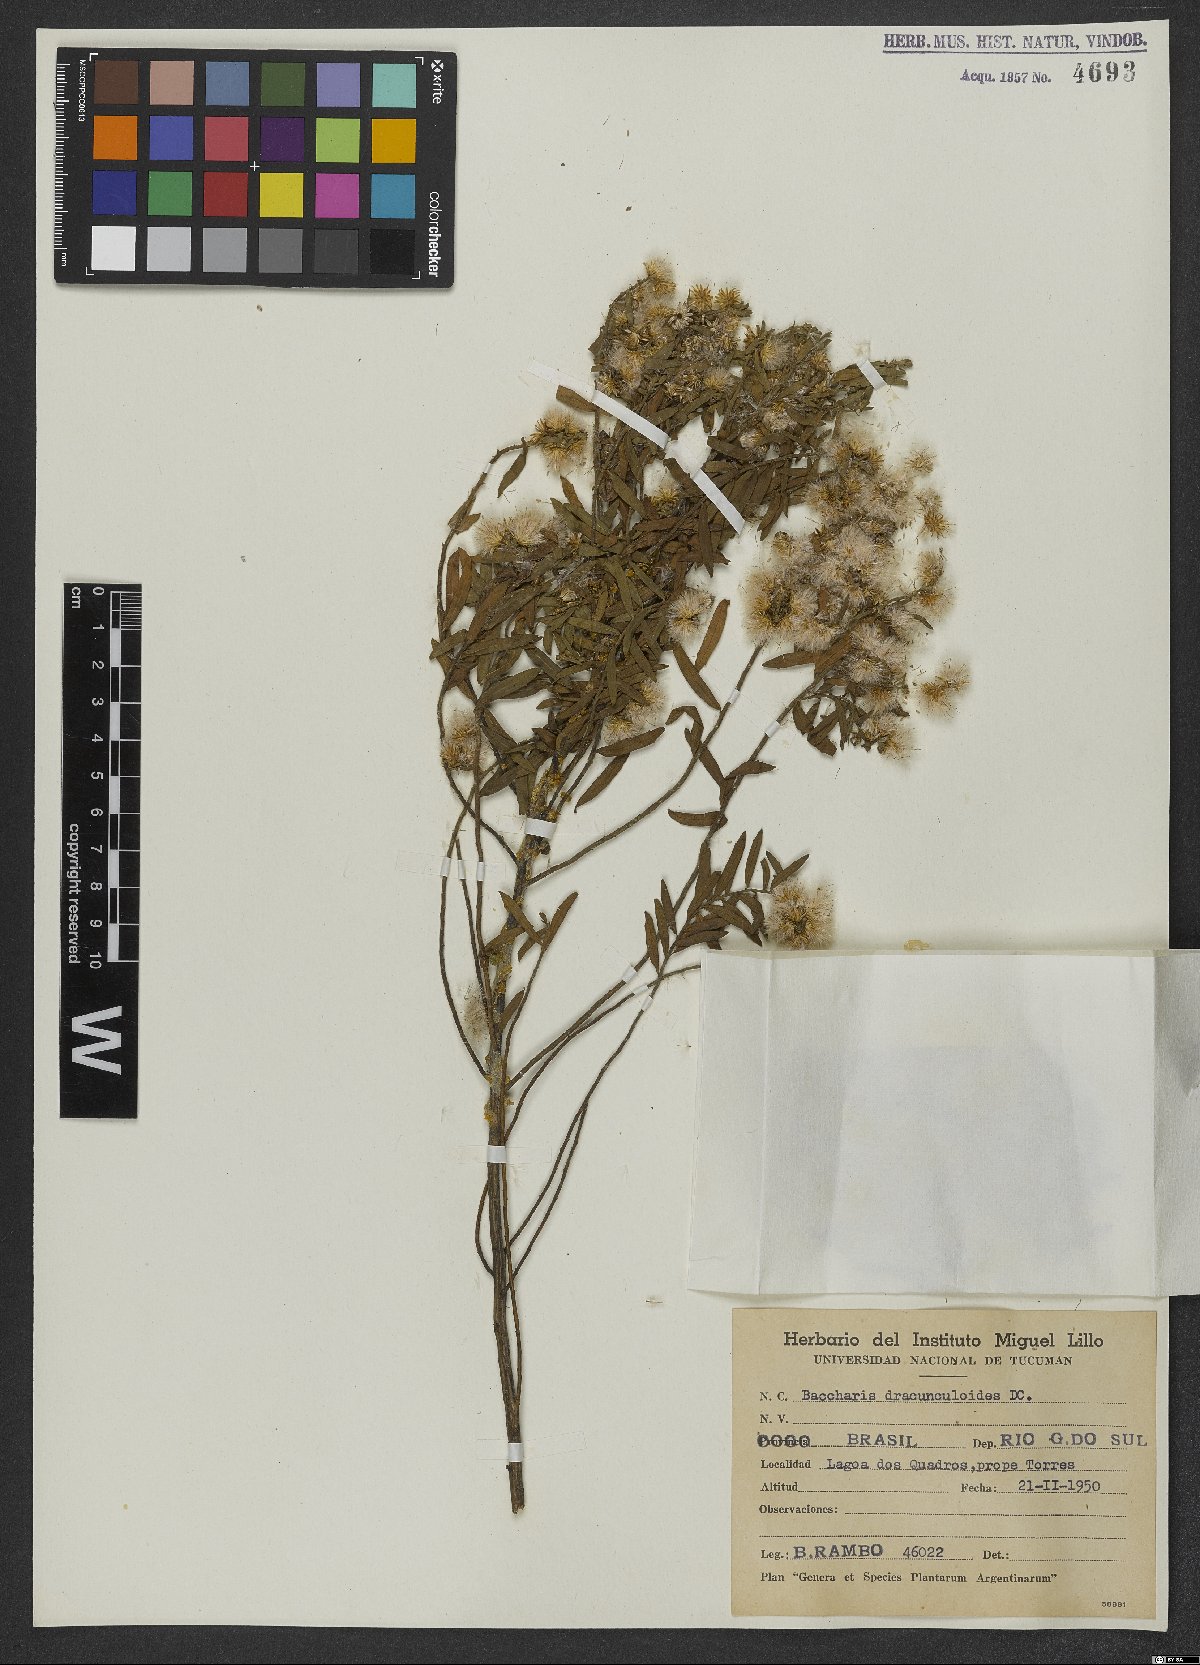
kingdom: Plantae
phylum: Tracheophyta
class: Magnoliopsida
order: Asterales
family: Asteraceae
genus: Baccharis
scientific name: Baccharis dracunculifolia
